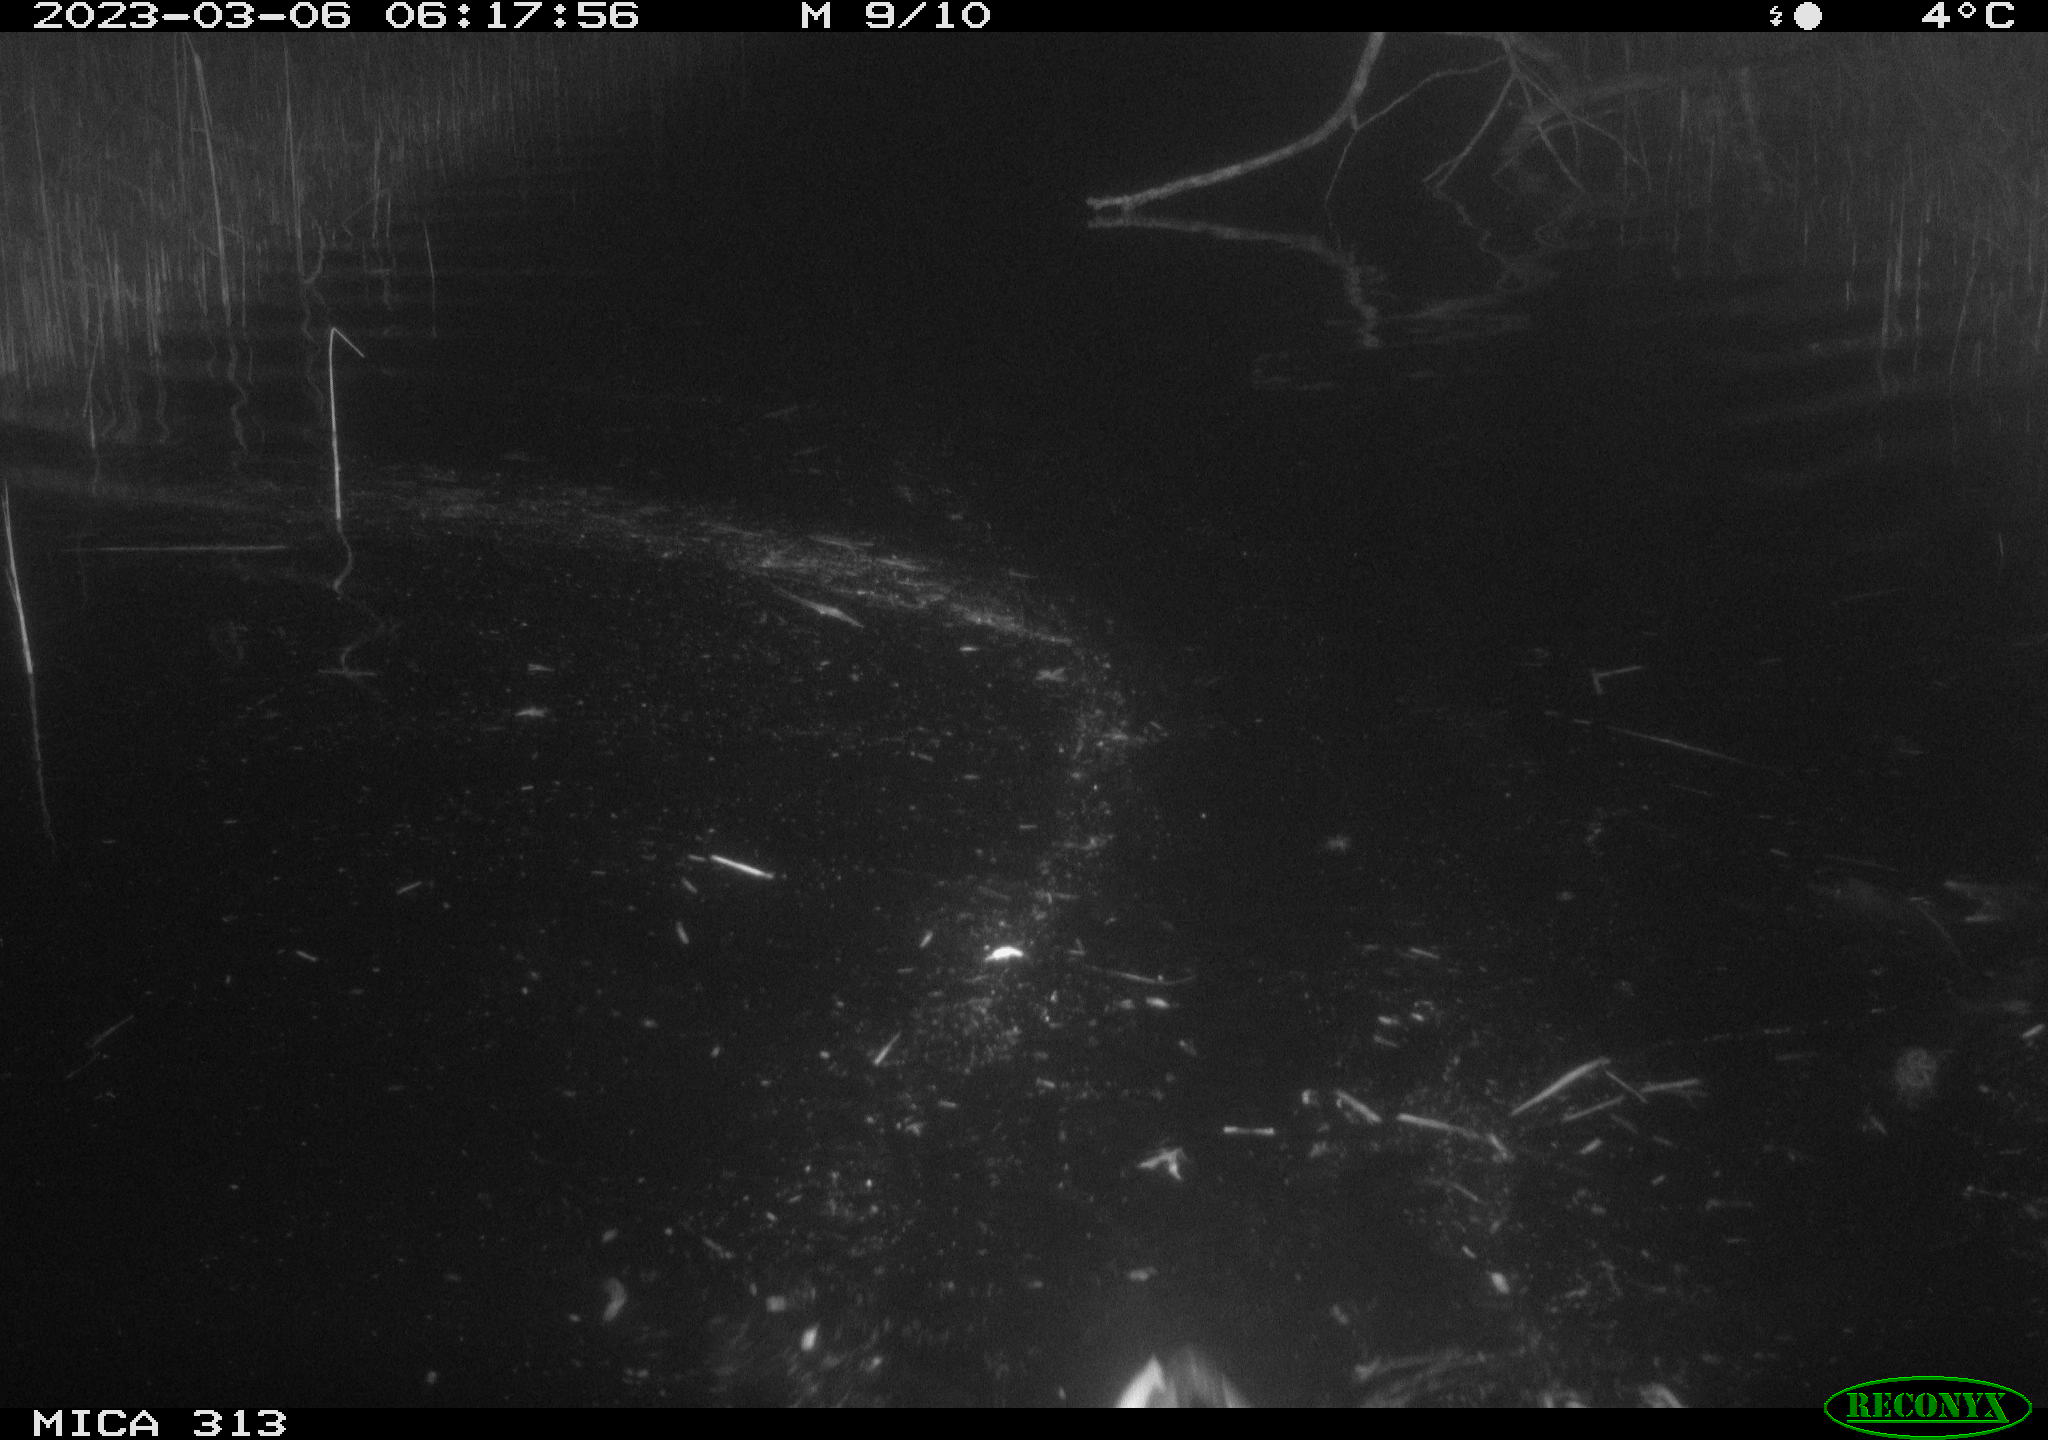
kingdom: Animalia
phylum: Chordata
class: Mammalia
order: Rodentia
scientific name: Rodentia
